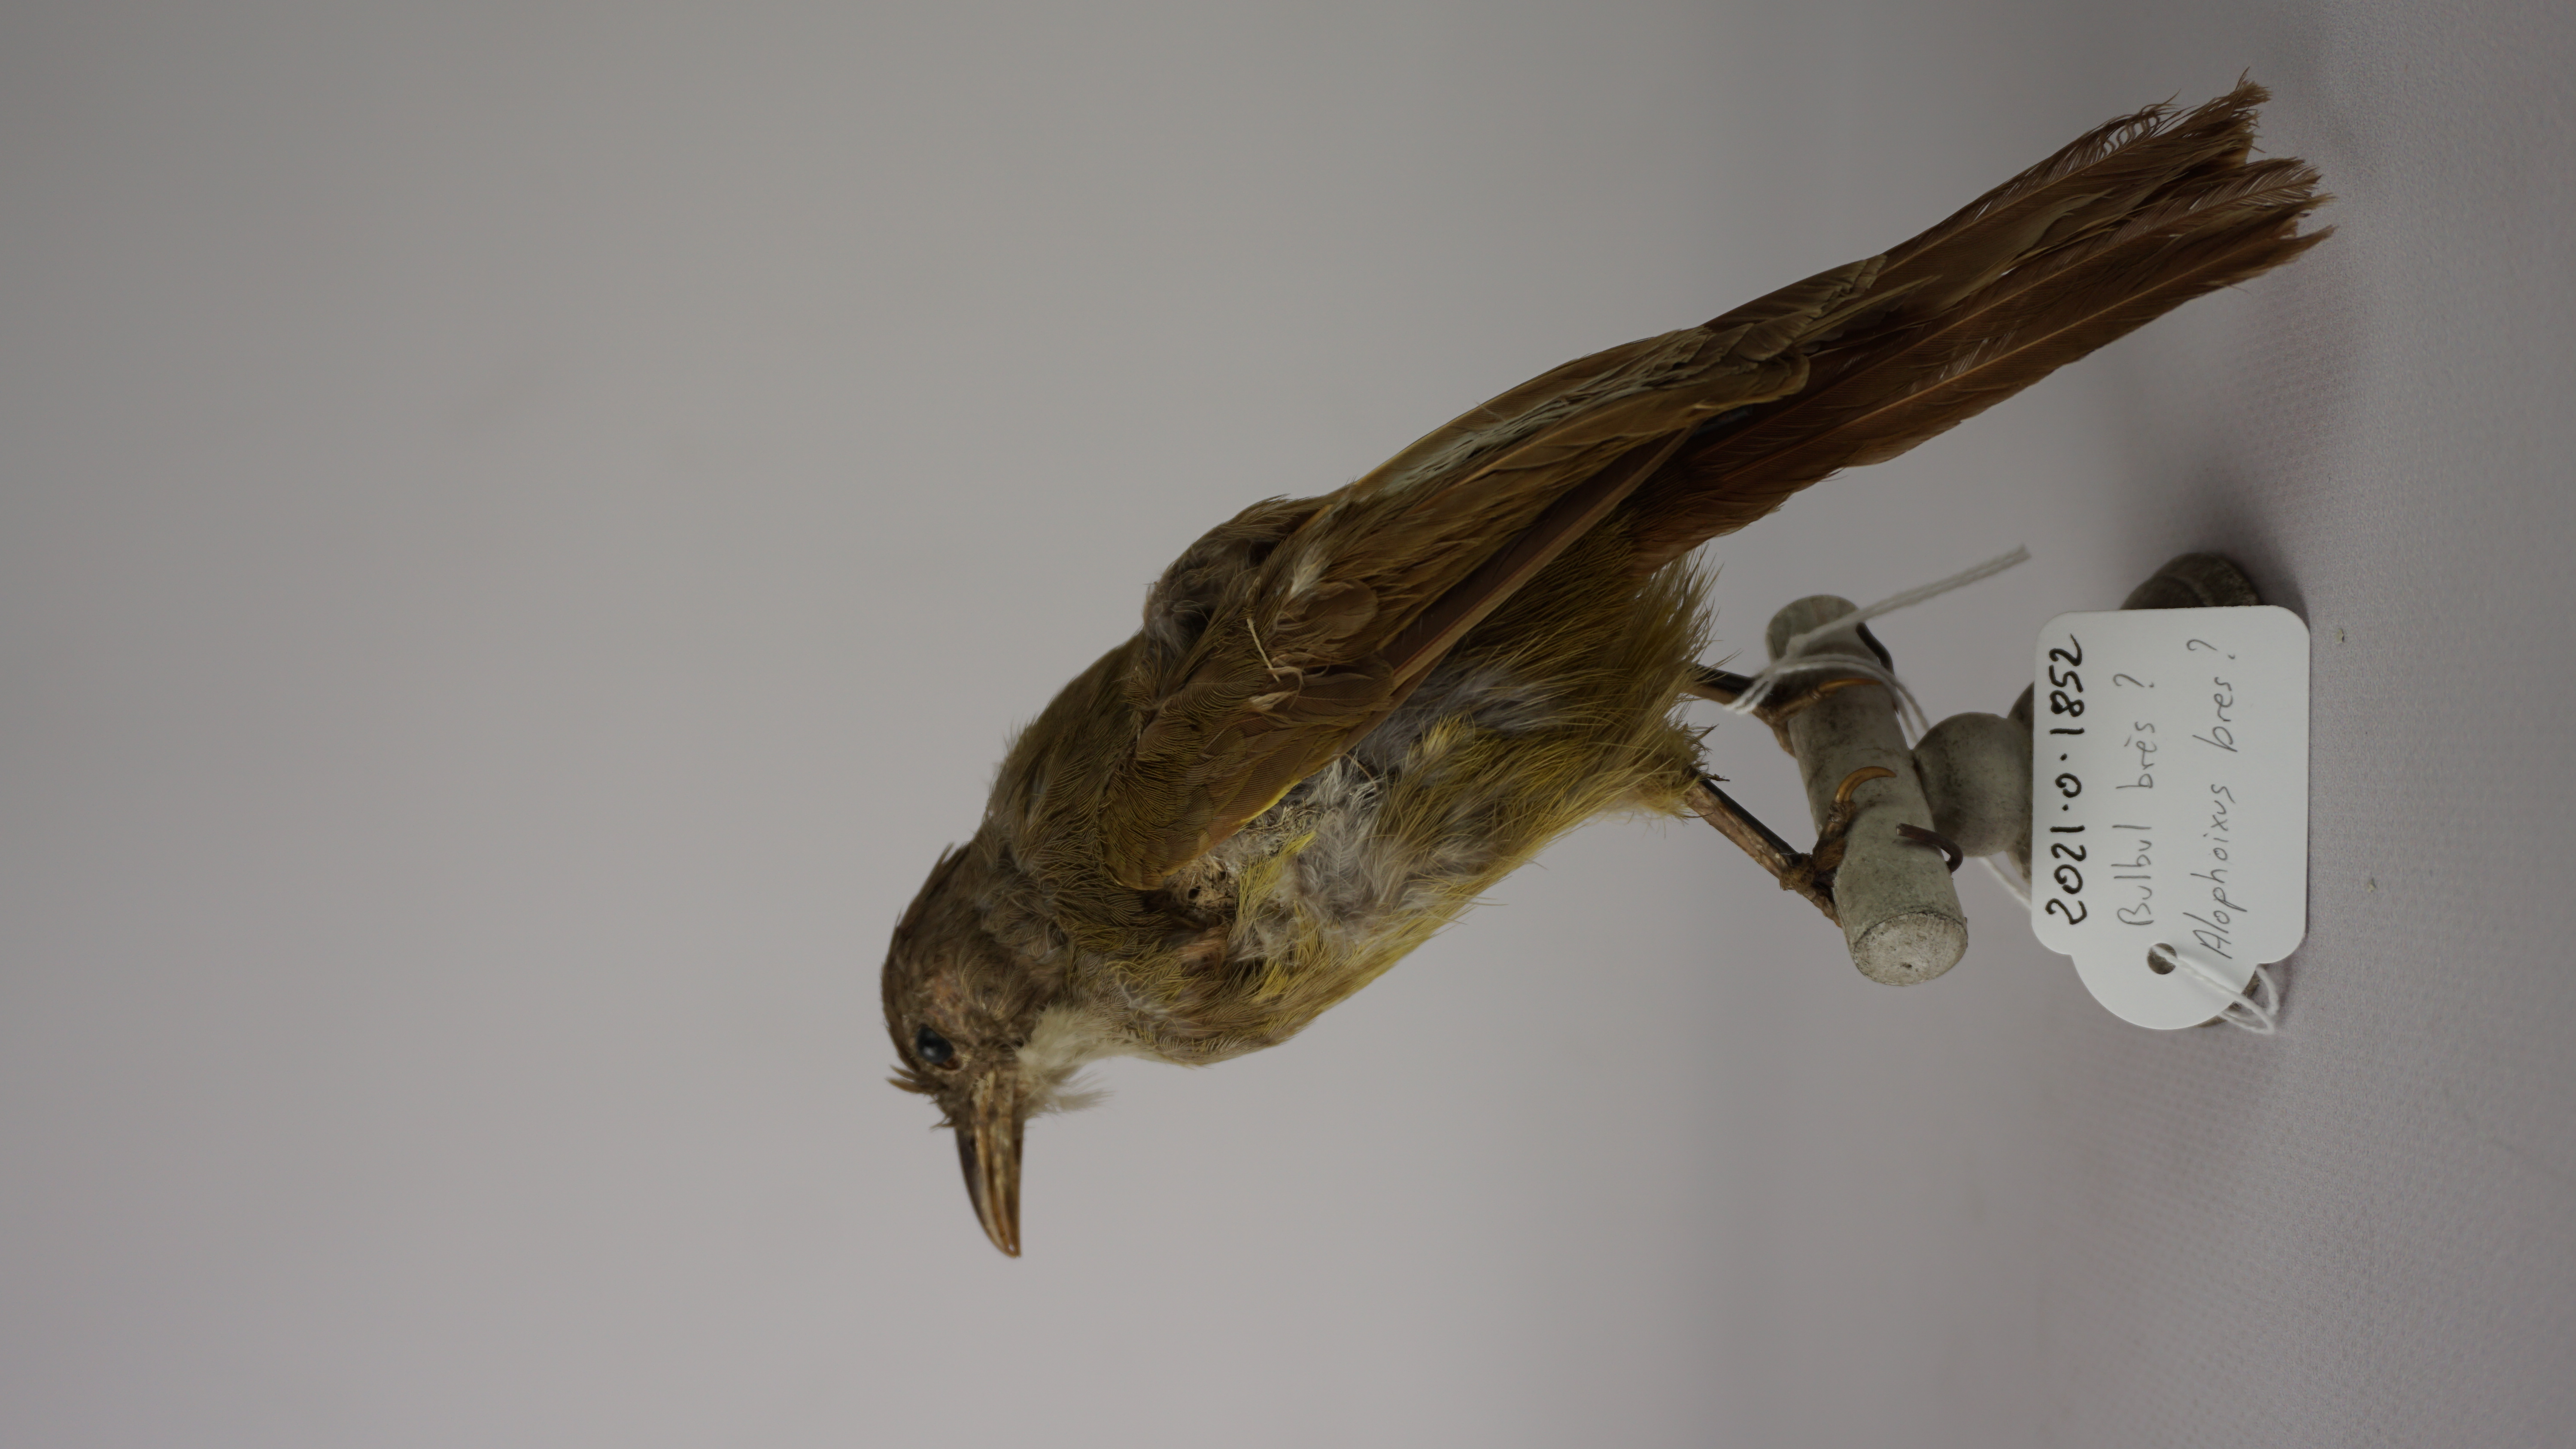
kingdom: Animalia
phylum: Chordata
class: Aves
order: Passeriformes
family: Pycnonotidae
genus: Alophoixus
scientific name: Alophoixus bres
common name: Gray-cheeked bulbul
